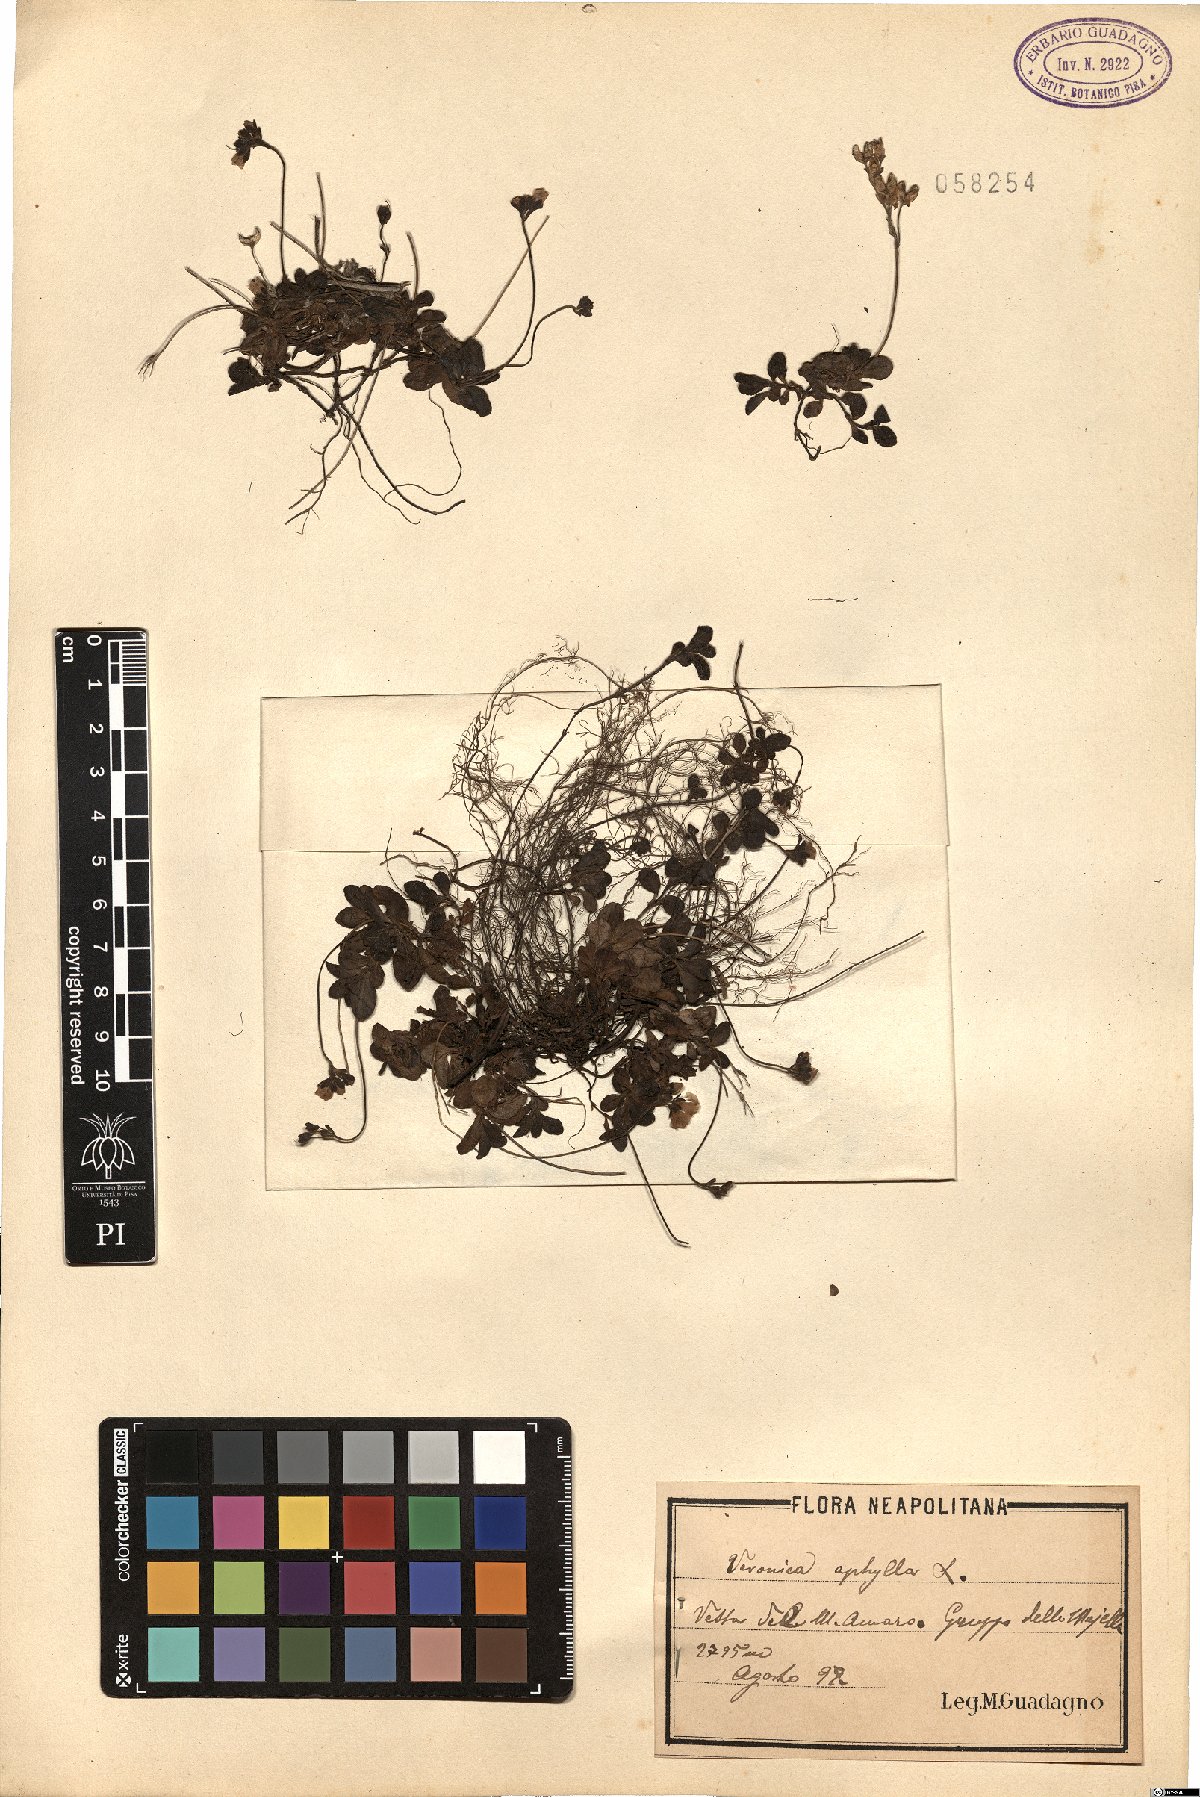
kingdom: Plantae
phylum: Tracheophyta
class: Magnoliopsida
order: Lamiales
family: Plantaginaceae
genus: Veronica
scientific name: Veronica aphylla
